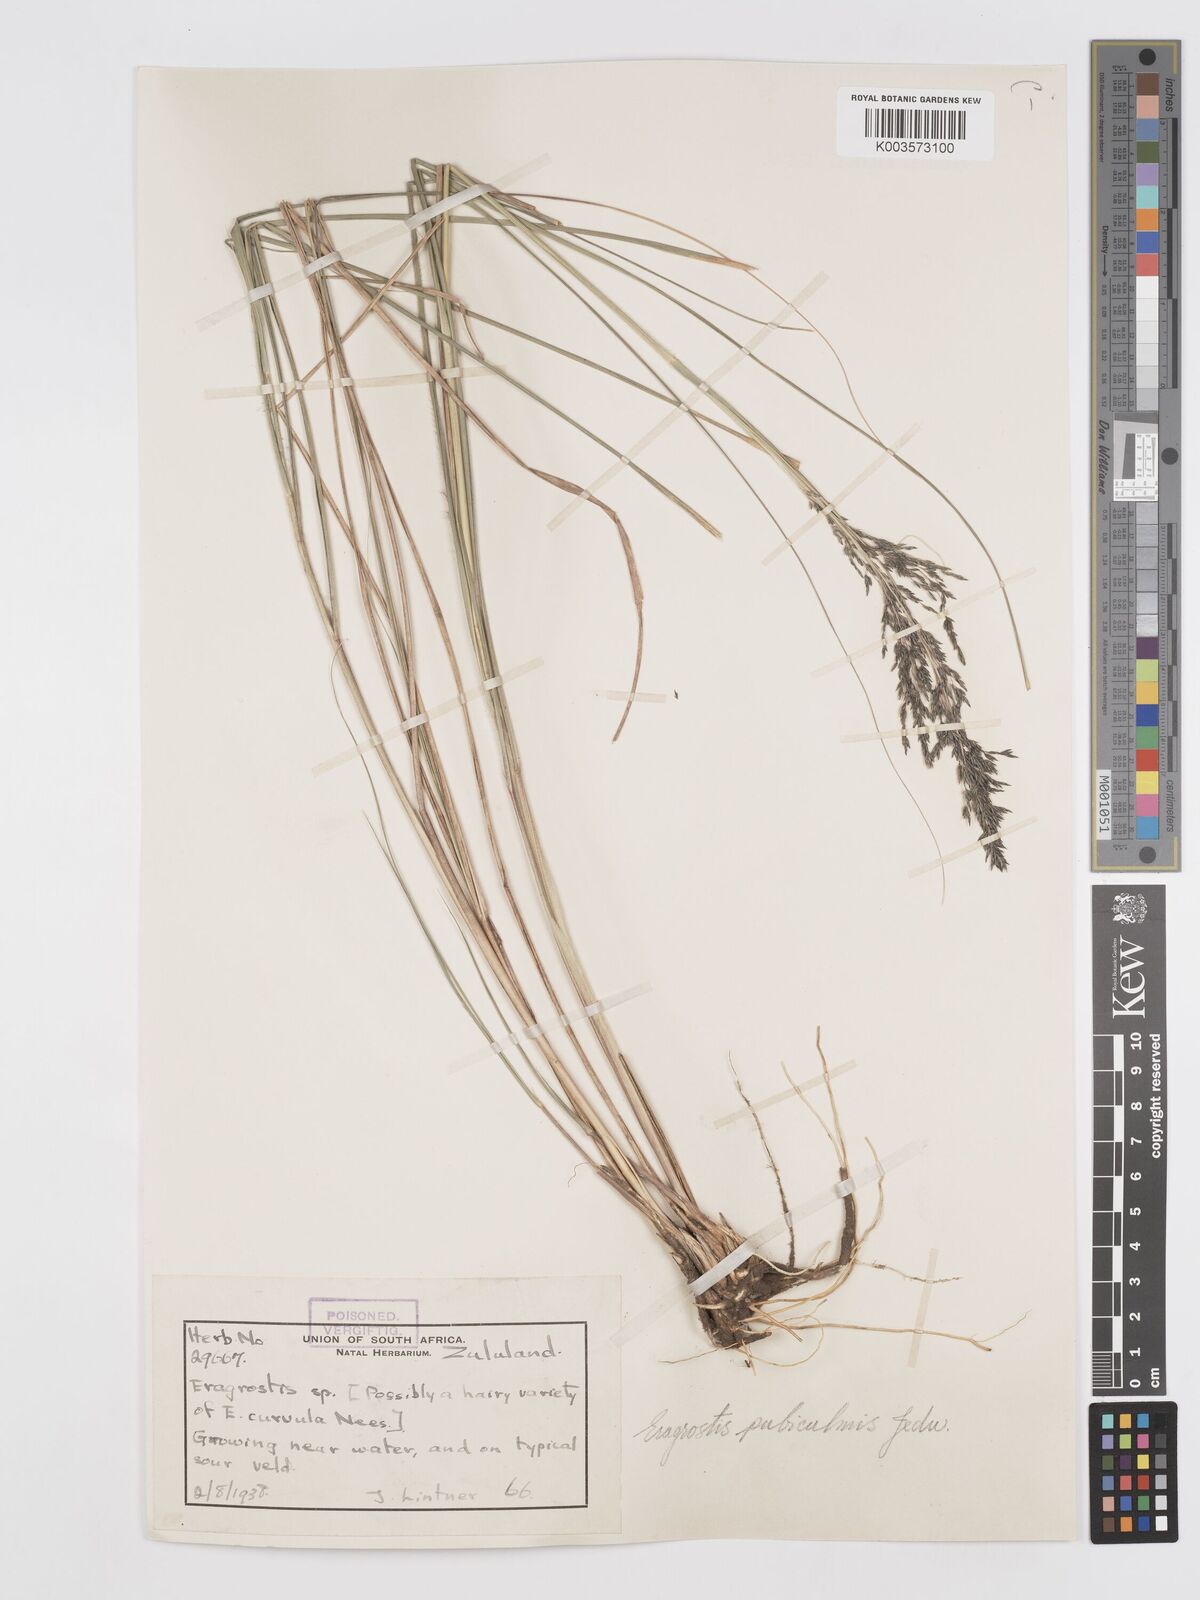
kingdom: Plantae
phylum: Tracheophyta
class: Liliopsida
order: Poales
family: Poaceae
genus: Eragrostis
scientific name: Eragrostis curvula
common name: African love-grass
